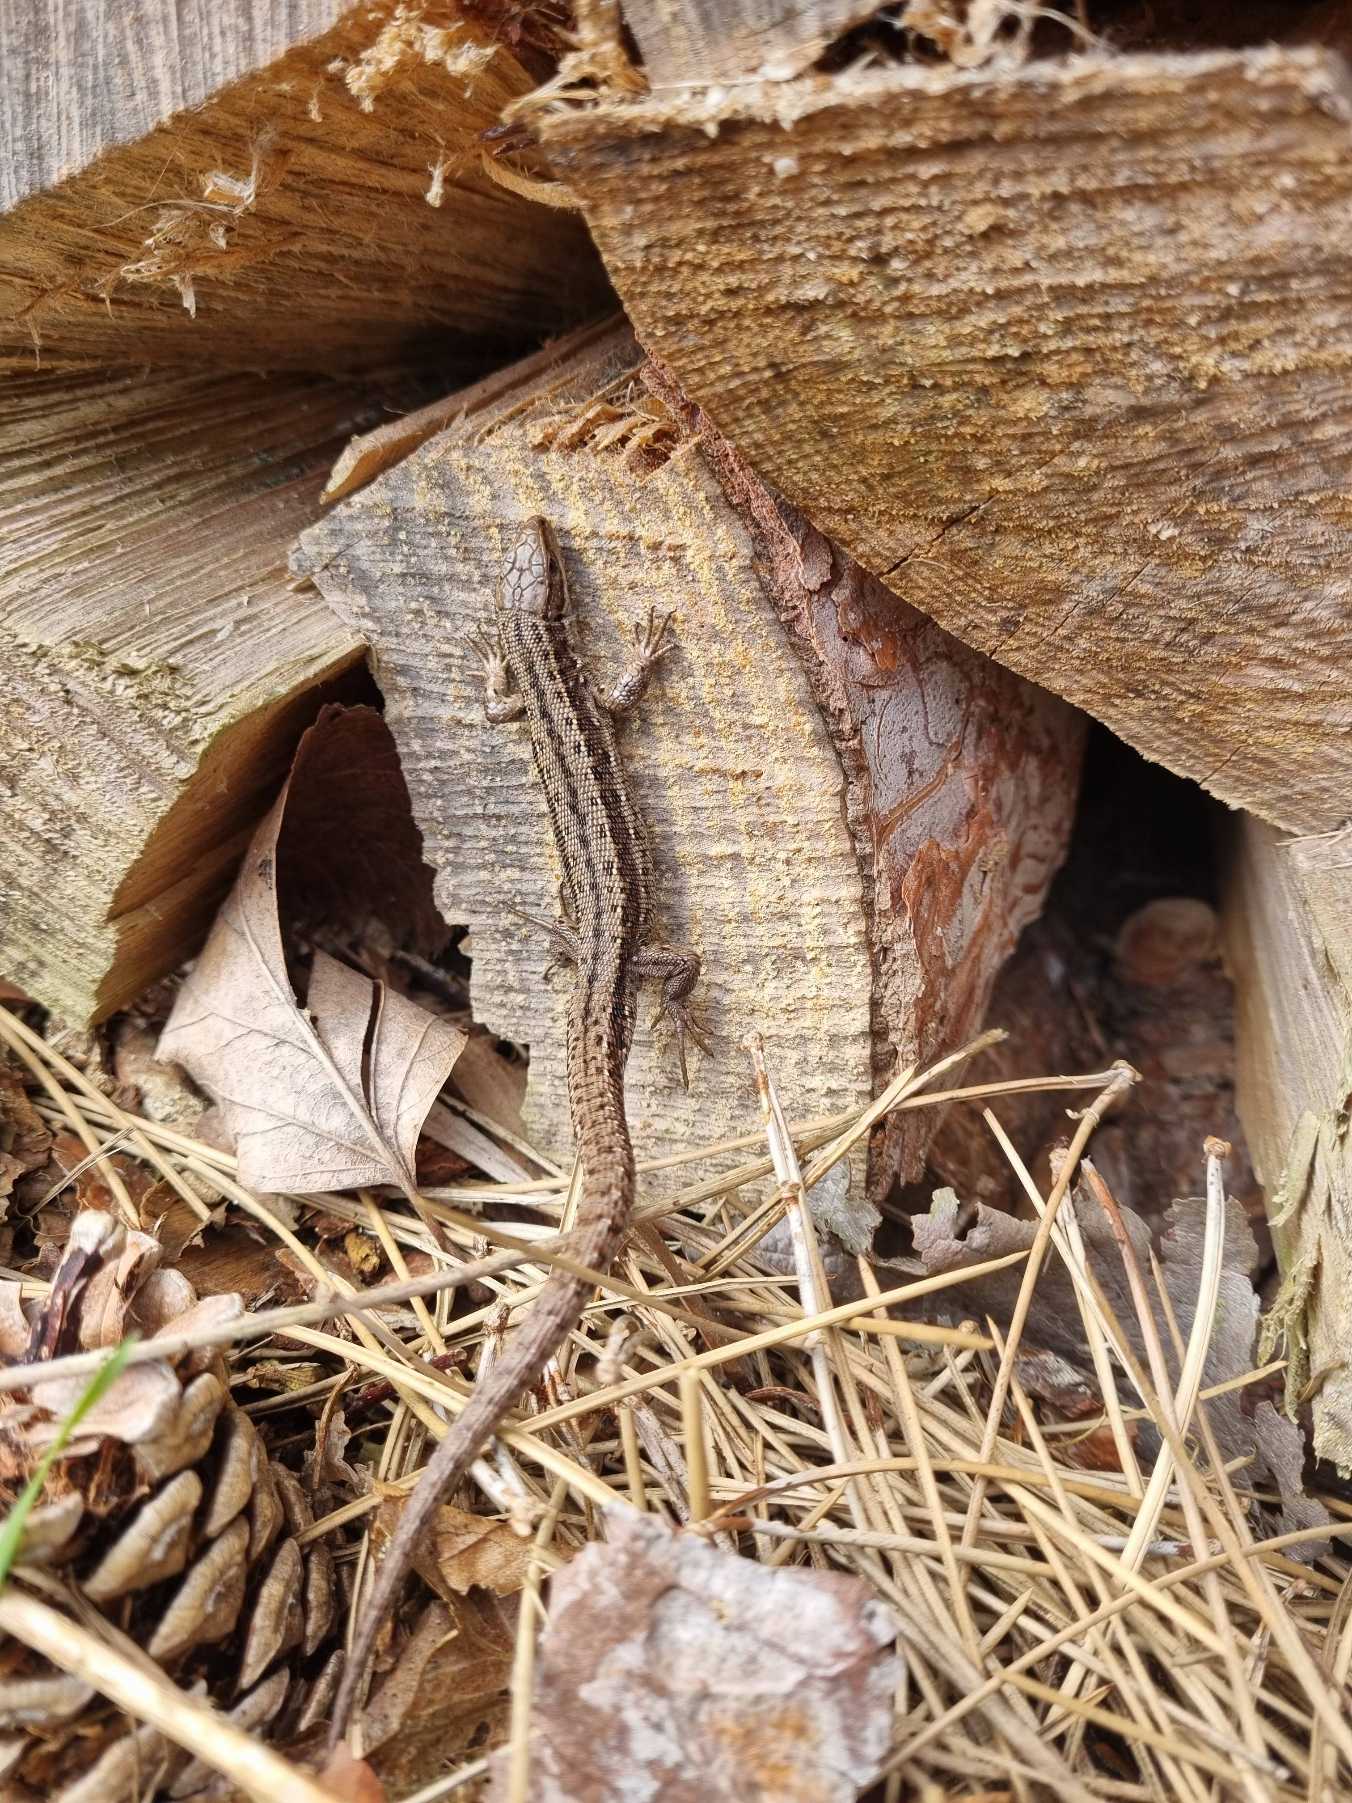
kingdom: Animalia
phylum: Chordata
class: Squamata
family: Lacertidae
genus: Zootoca
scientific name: Zootoca vivipara
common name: Skovfirben
